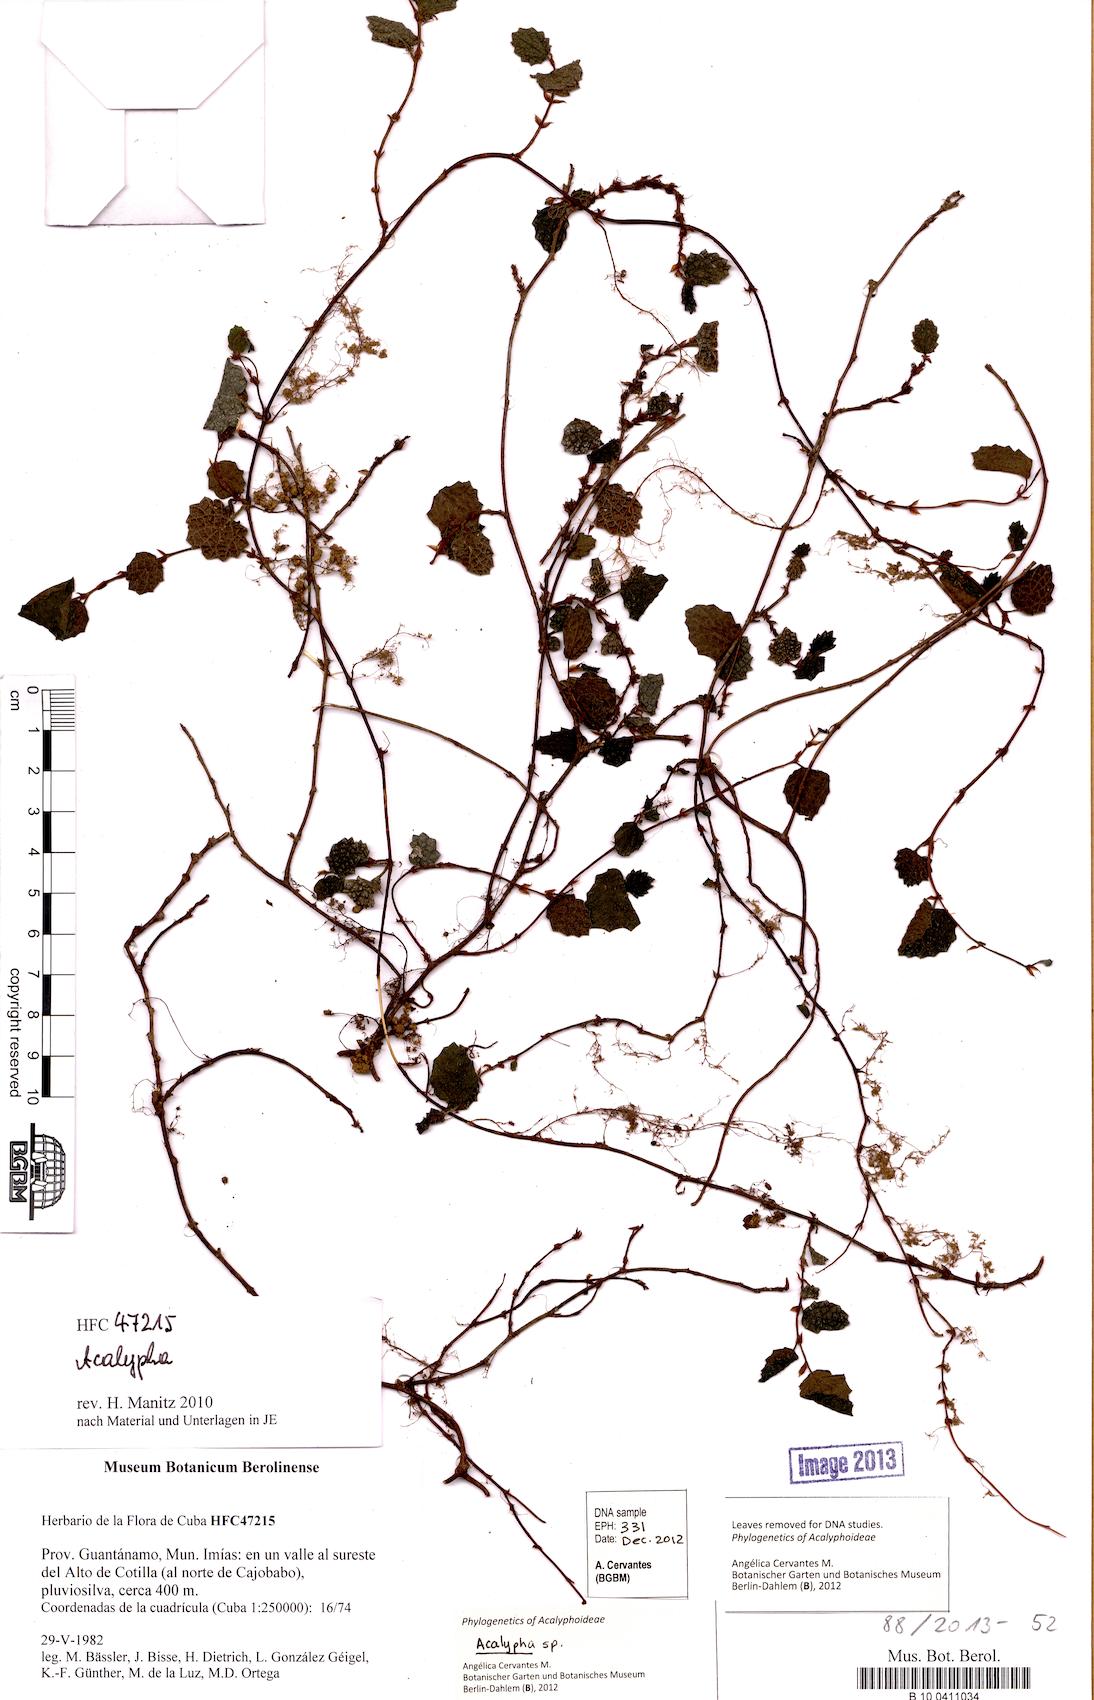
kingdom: Plantae
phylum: Tracheophyta
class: Magnoliopsida
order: Malpighiales
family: Euphorbiaceae
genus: Acalypha
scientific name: Acalypha
